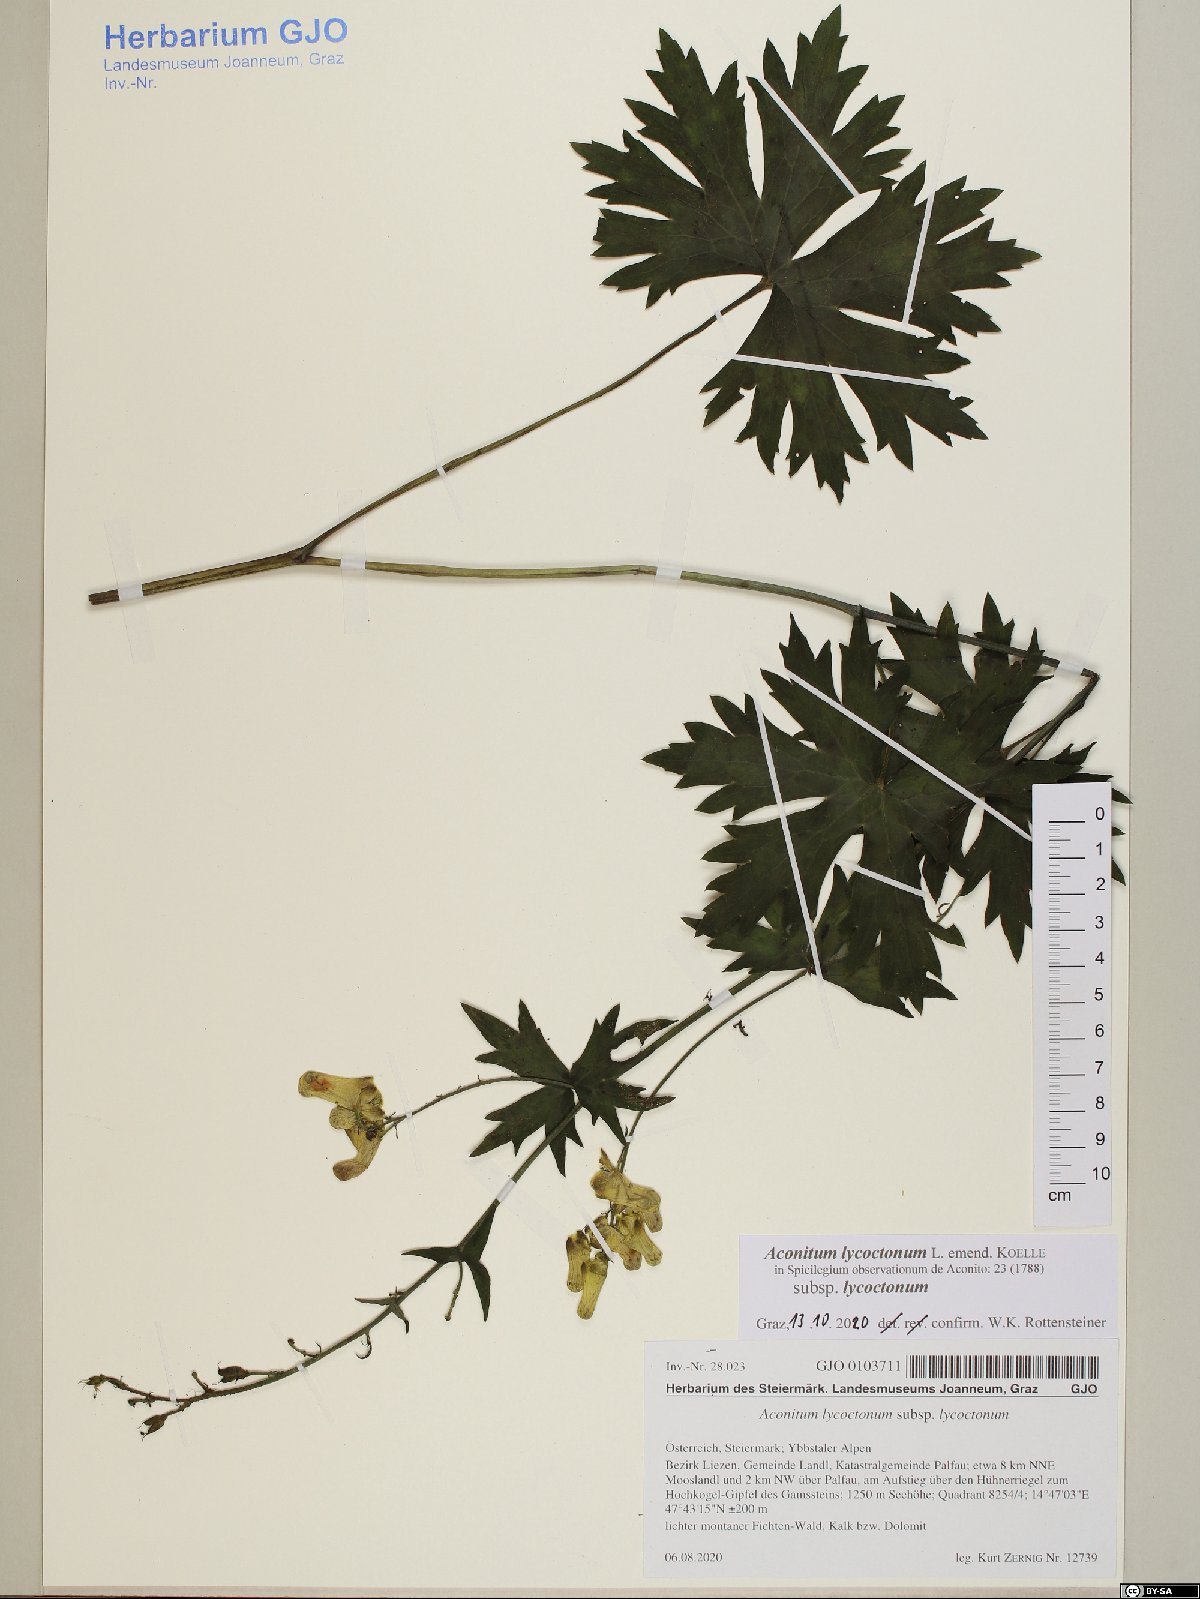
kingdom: Plantae
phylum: Tracheophyta
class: Magnoliopsida
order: Ranunculales
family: Ranunculaceae
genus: Aconitum
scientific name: Aconitum lycoctonum
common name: Wolf's-bane
